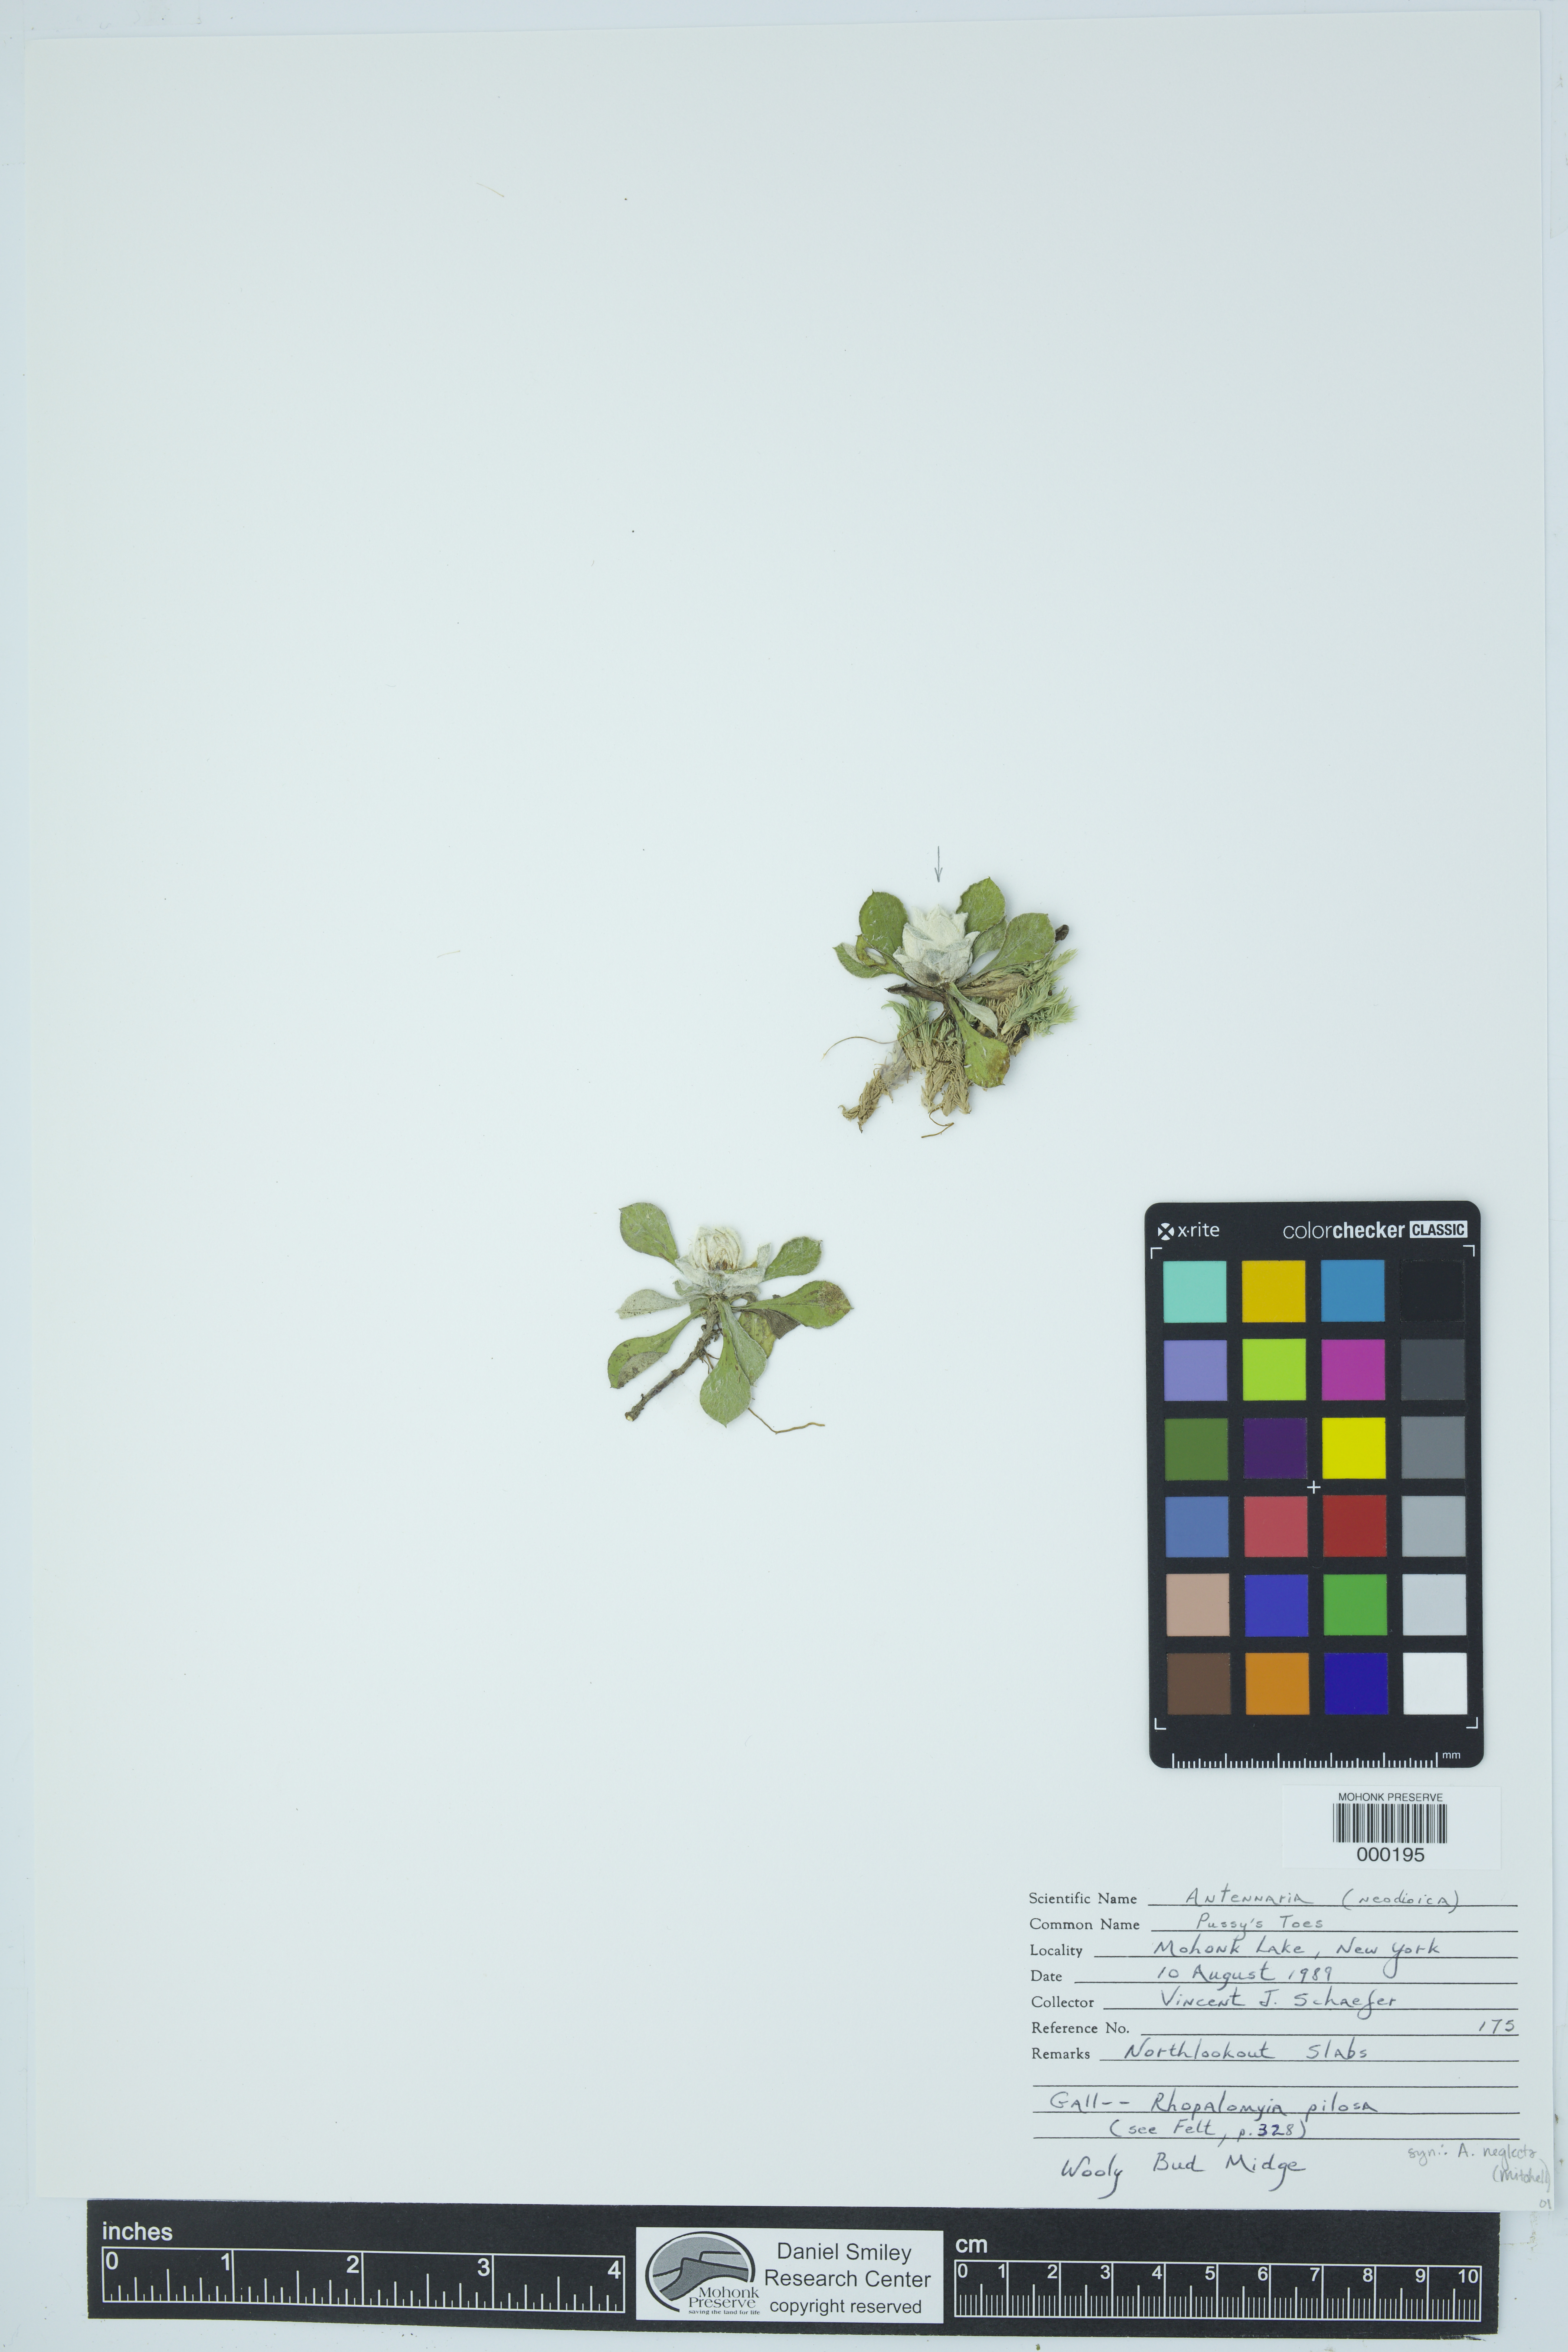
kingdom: Plantae
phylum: Tracheophyta
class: Magnoliopsida
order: Asterales
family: Asteraceae
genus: Antennaria
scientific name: Antennaria neglecta
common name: Field pussytoes
